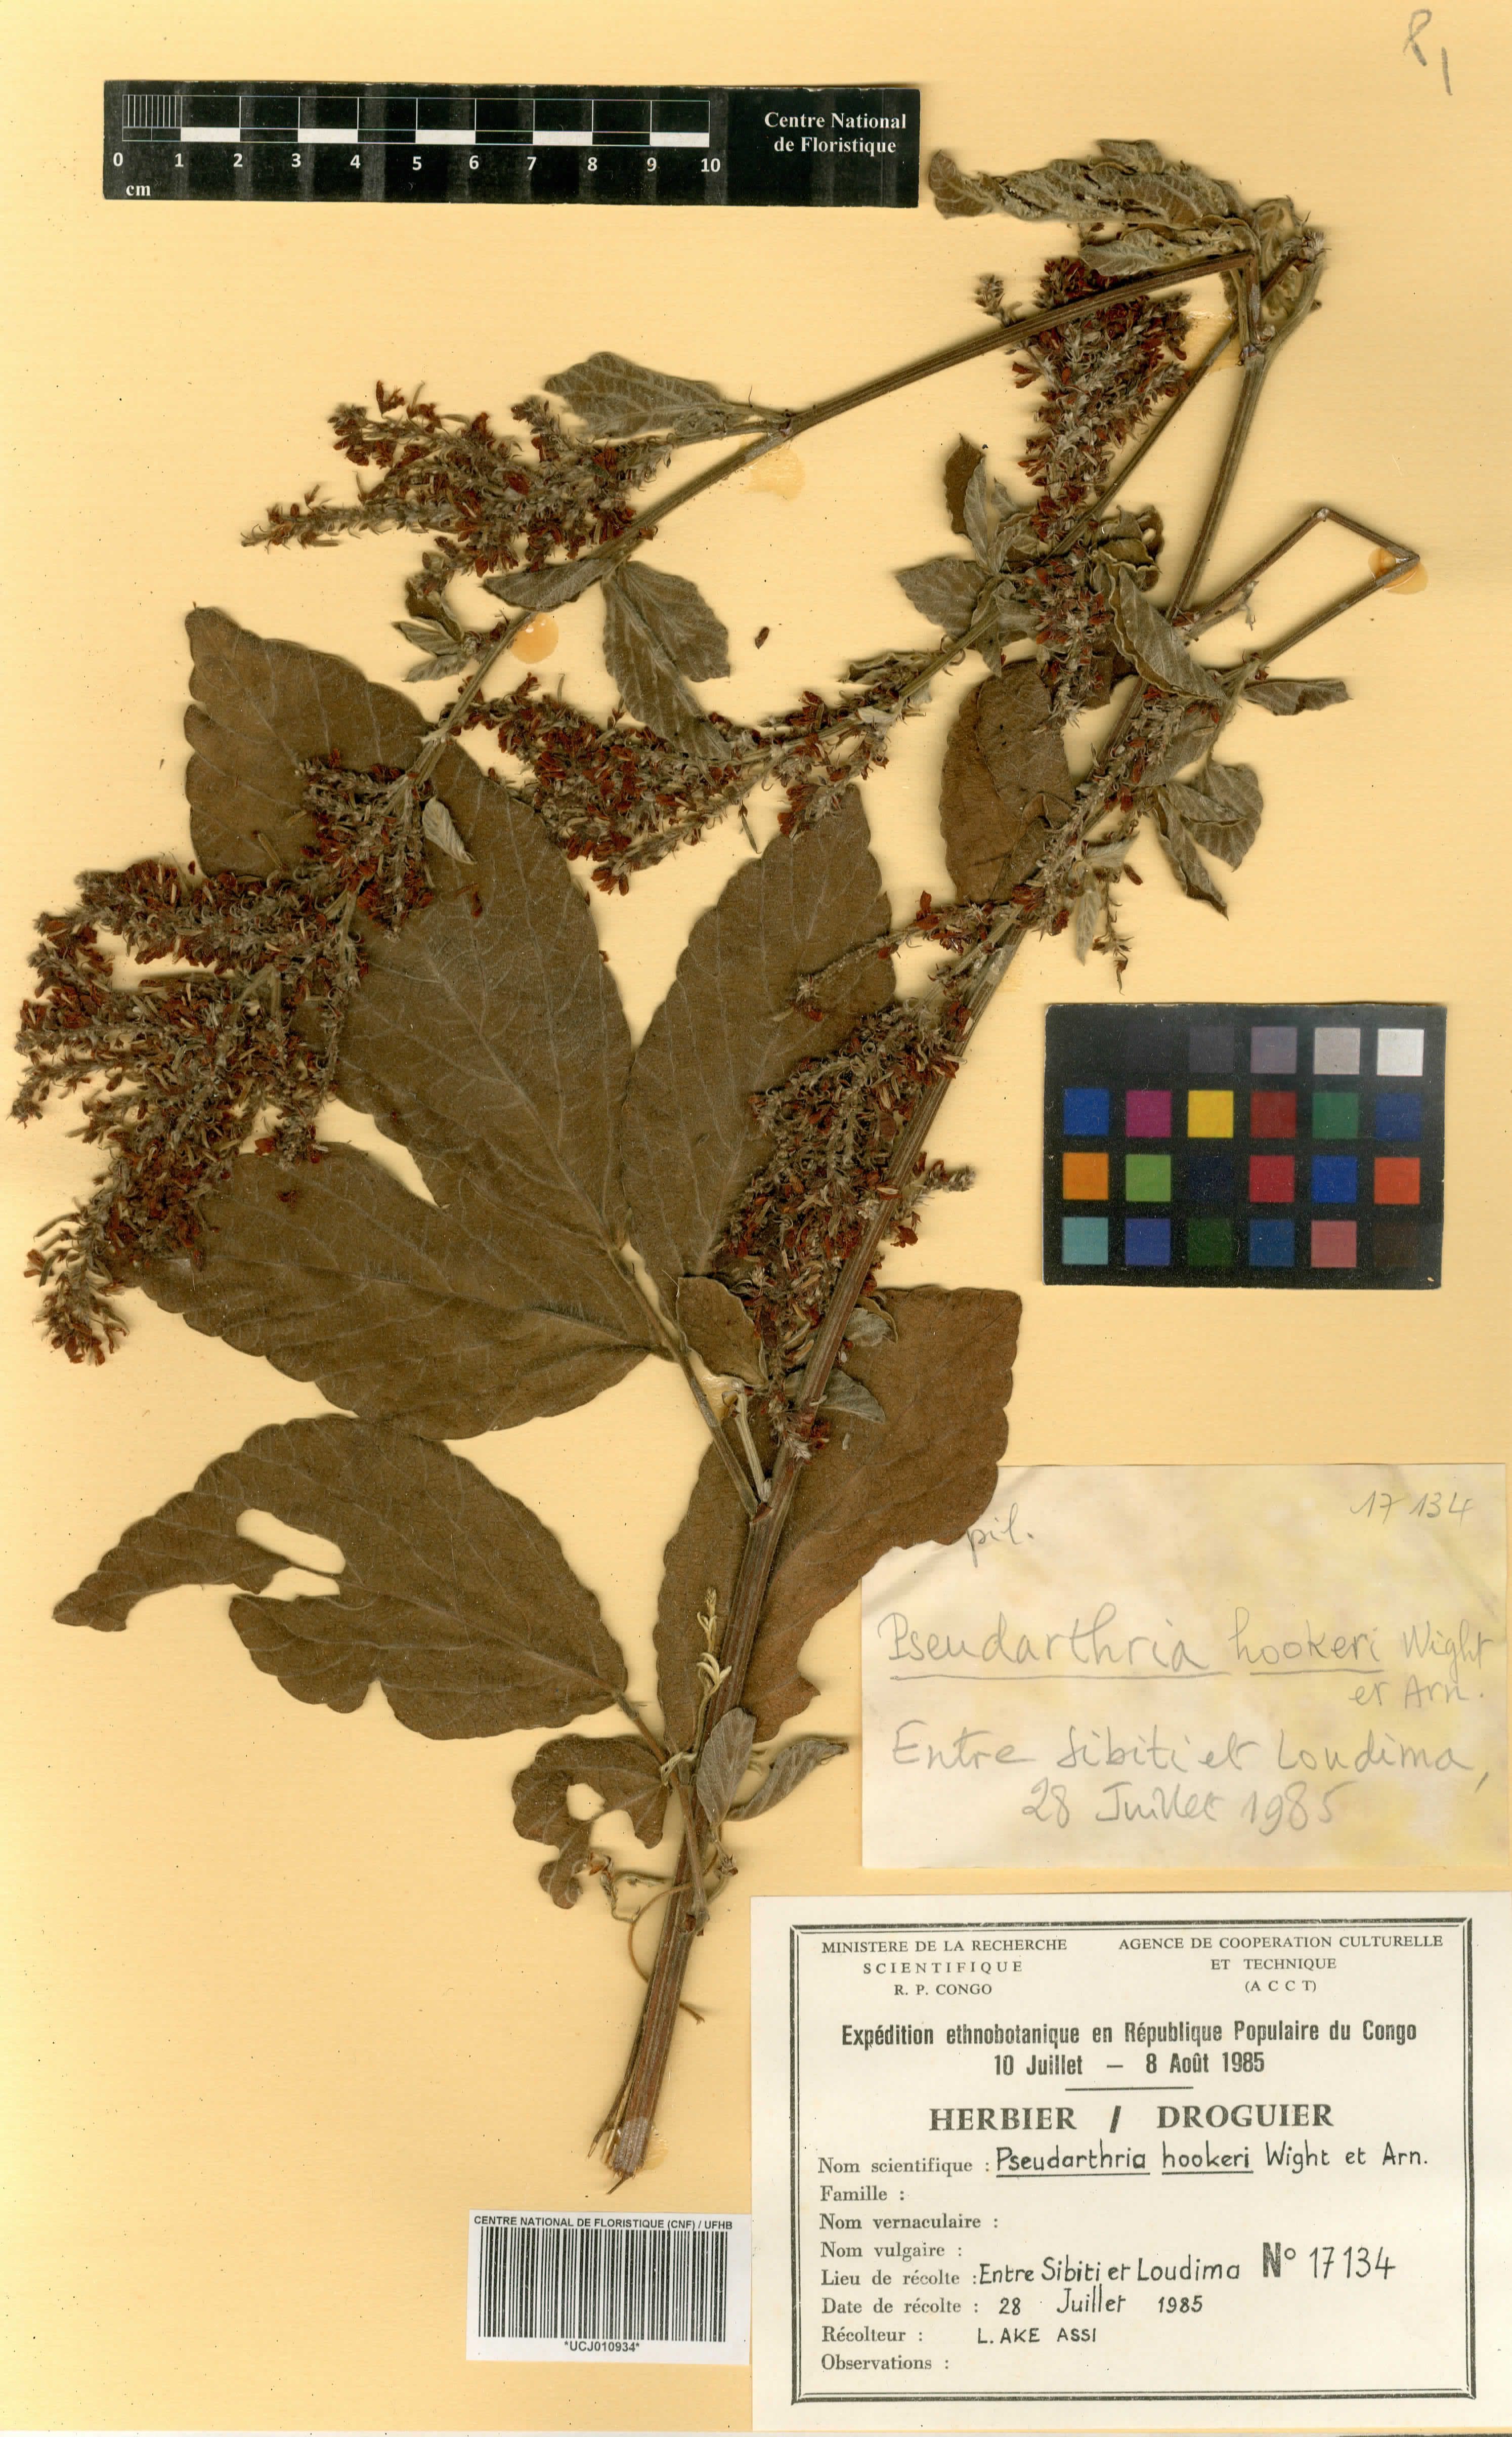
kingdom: Plantae
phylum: Tracheophyta
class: Magnoliopsida
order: Fabales
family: Fabaceae
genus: Pseudarthria
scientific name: Pseudarthria hookeri
